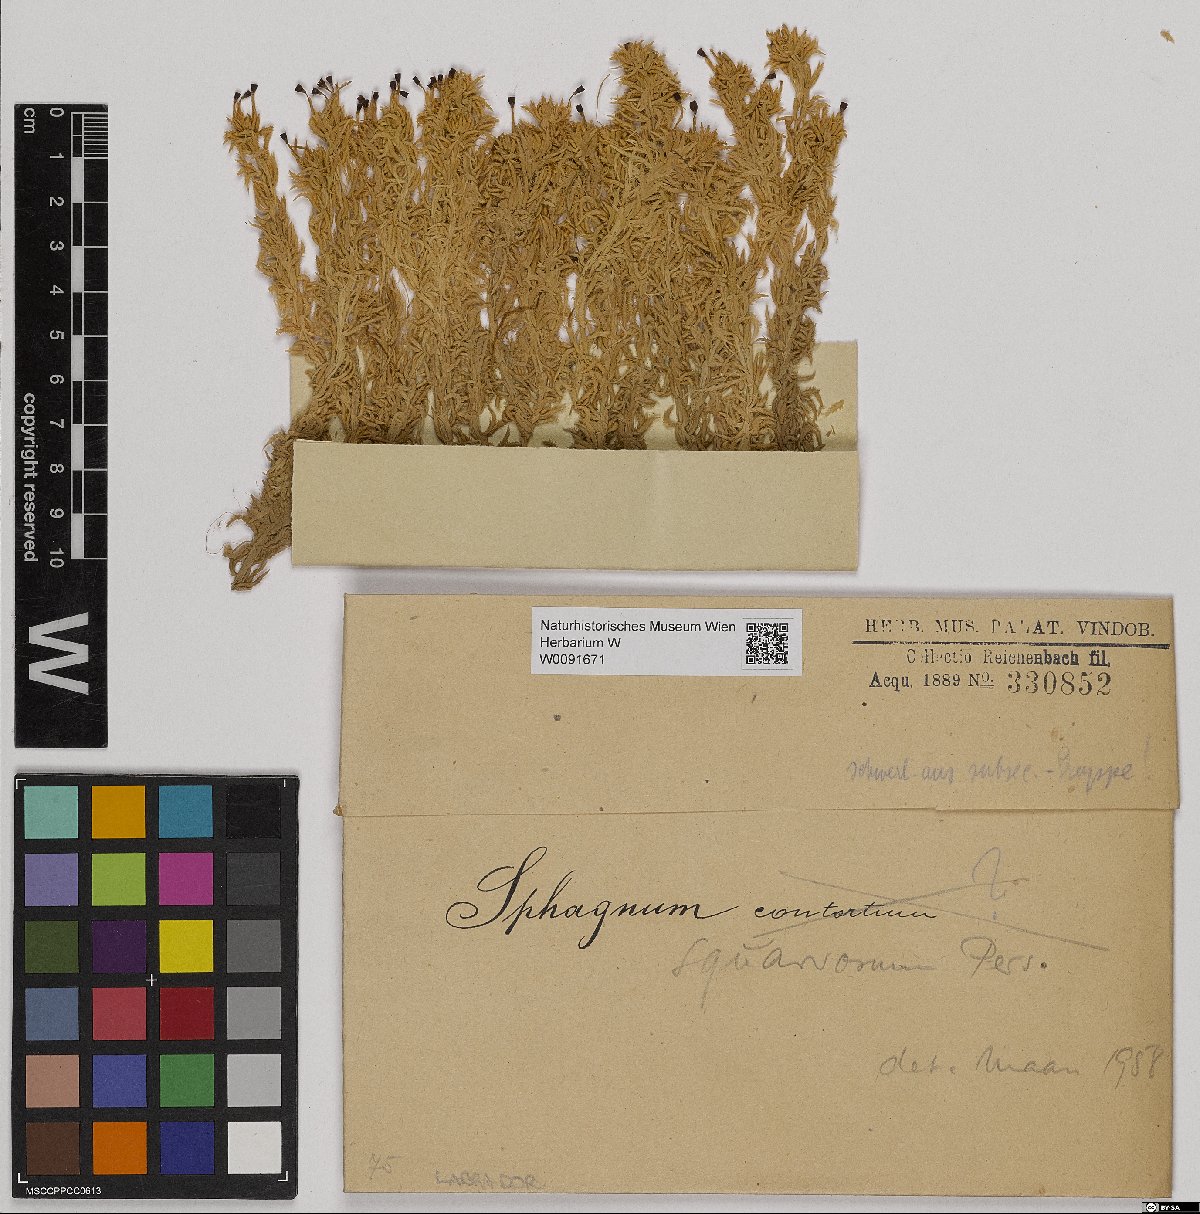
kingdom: Plantae
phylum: Bryophyta
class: Sphagnopsida
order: Sphagnales
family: Sphagnaceae
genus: Sphagnum
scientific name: Sphagnum squarrosum
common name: Shaggy peat moss
